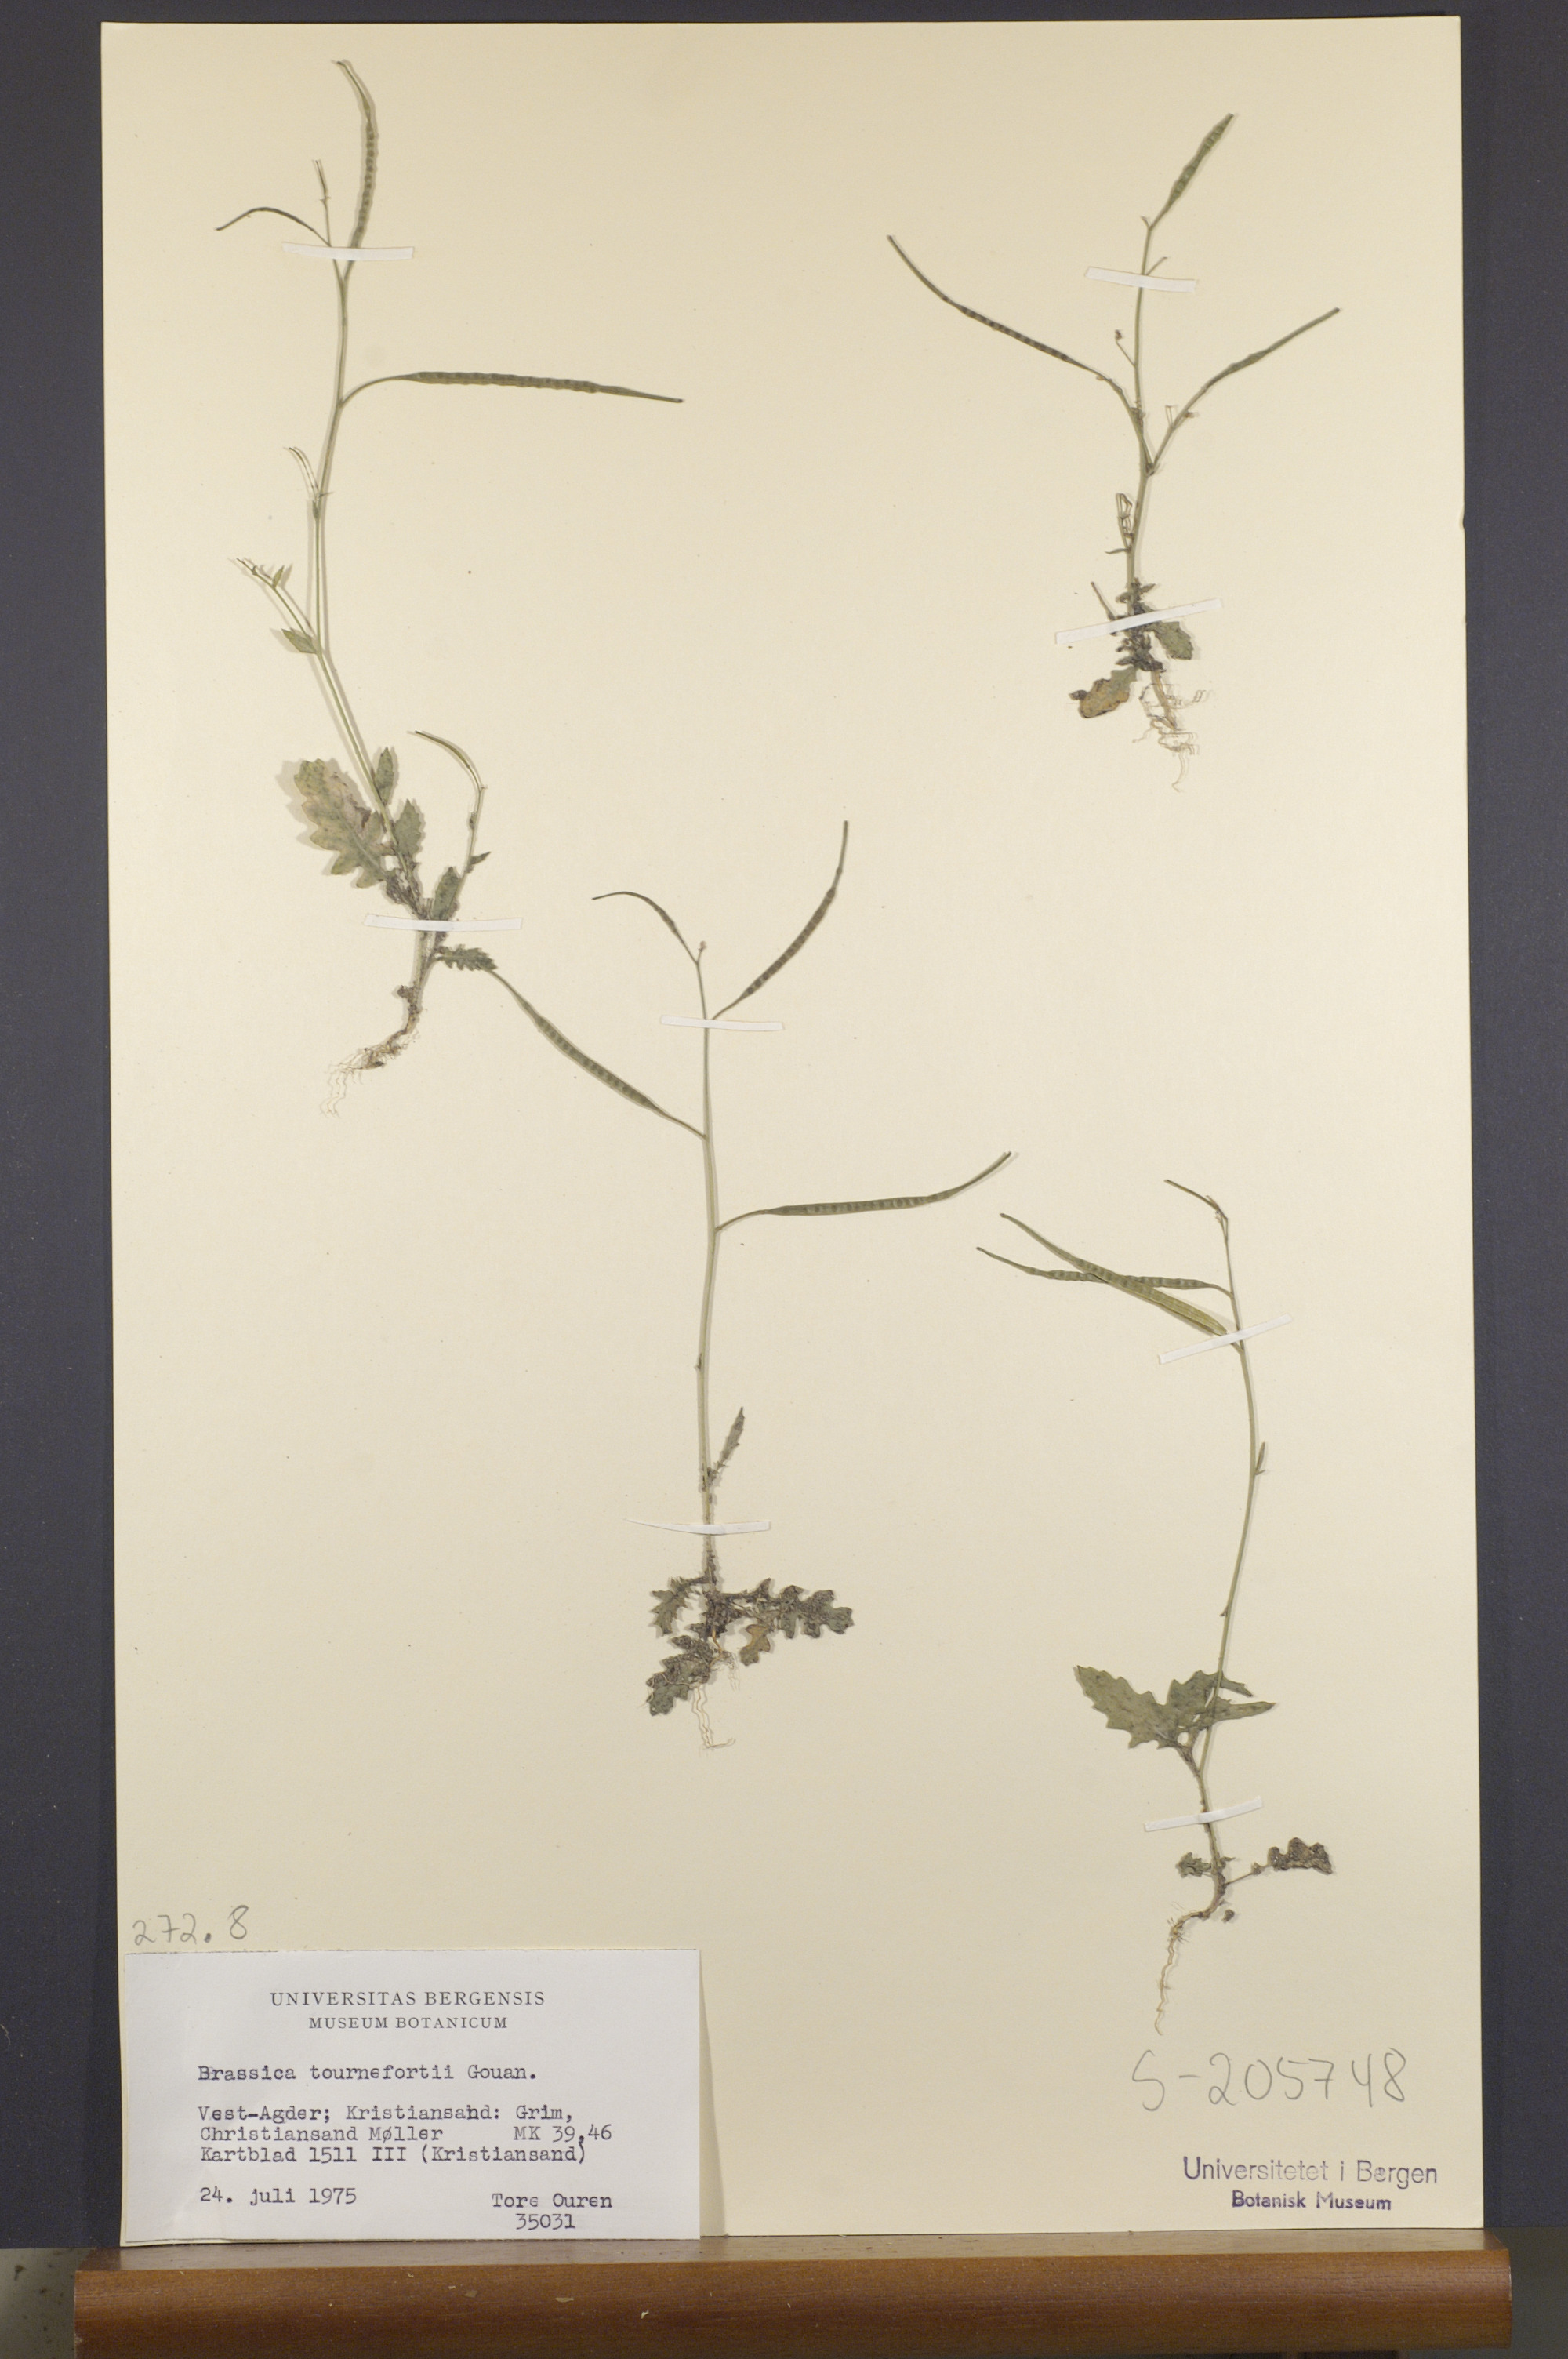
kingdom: Plantae
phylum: Tracheophyta
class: Magnoliopsida
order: Brassicales
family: Brassicaceae
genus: Brassica
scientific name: Brassica tournefortii
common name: Pale cabbage
